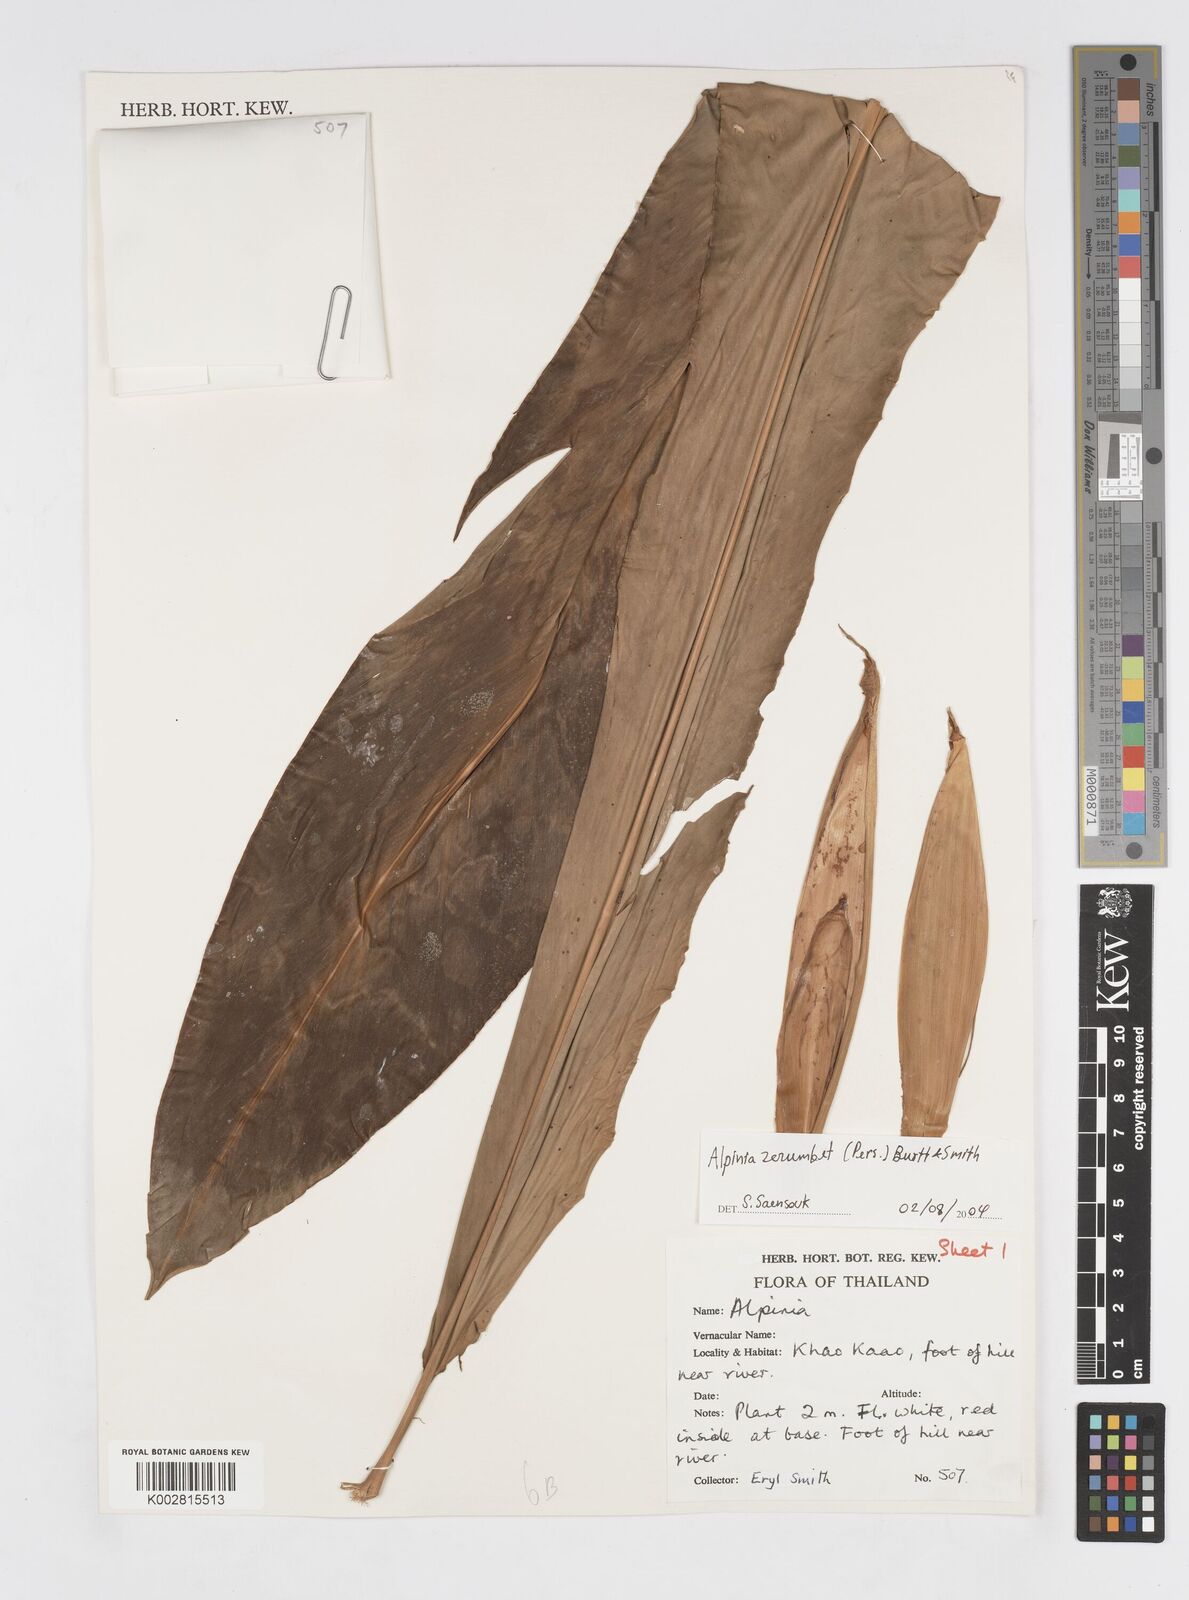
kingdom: Plantae
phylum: Tracheophyta
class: Liliopsida
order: Zingiberales
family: Zingiberaceae
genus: Alpinia
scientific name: Alpinia zerumbet
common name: Shellplant
